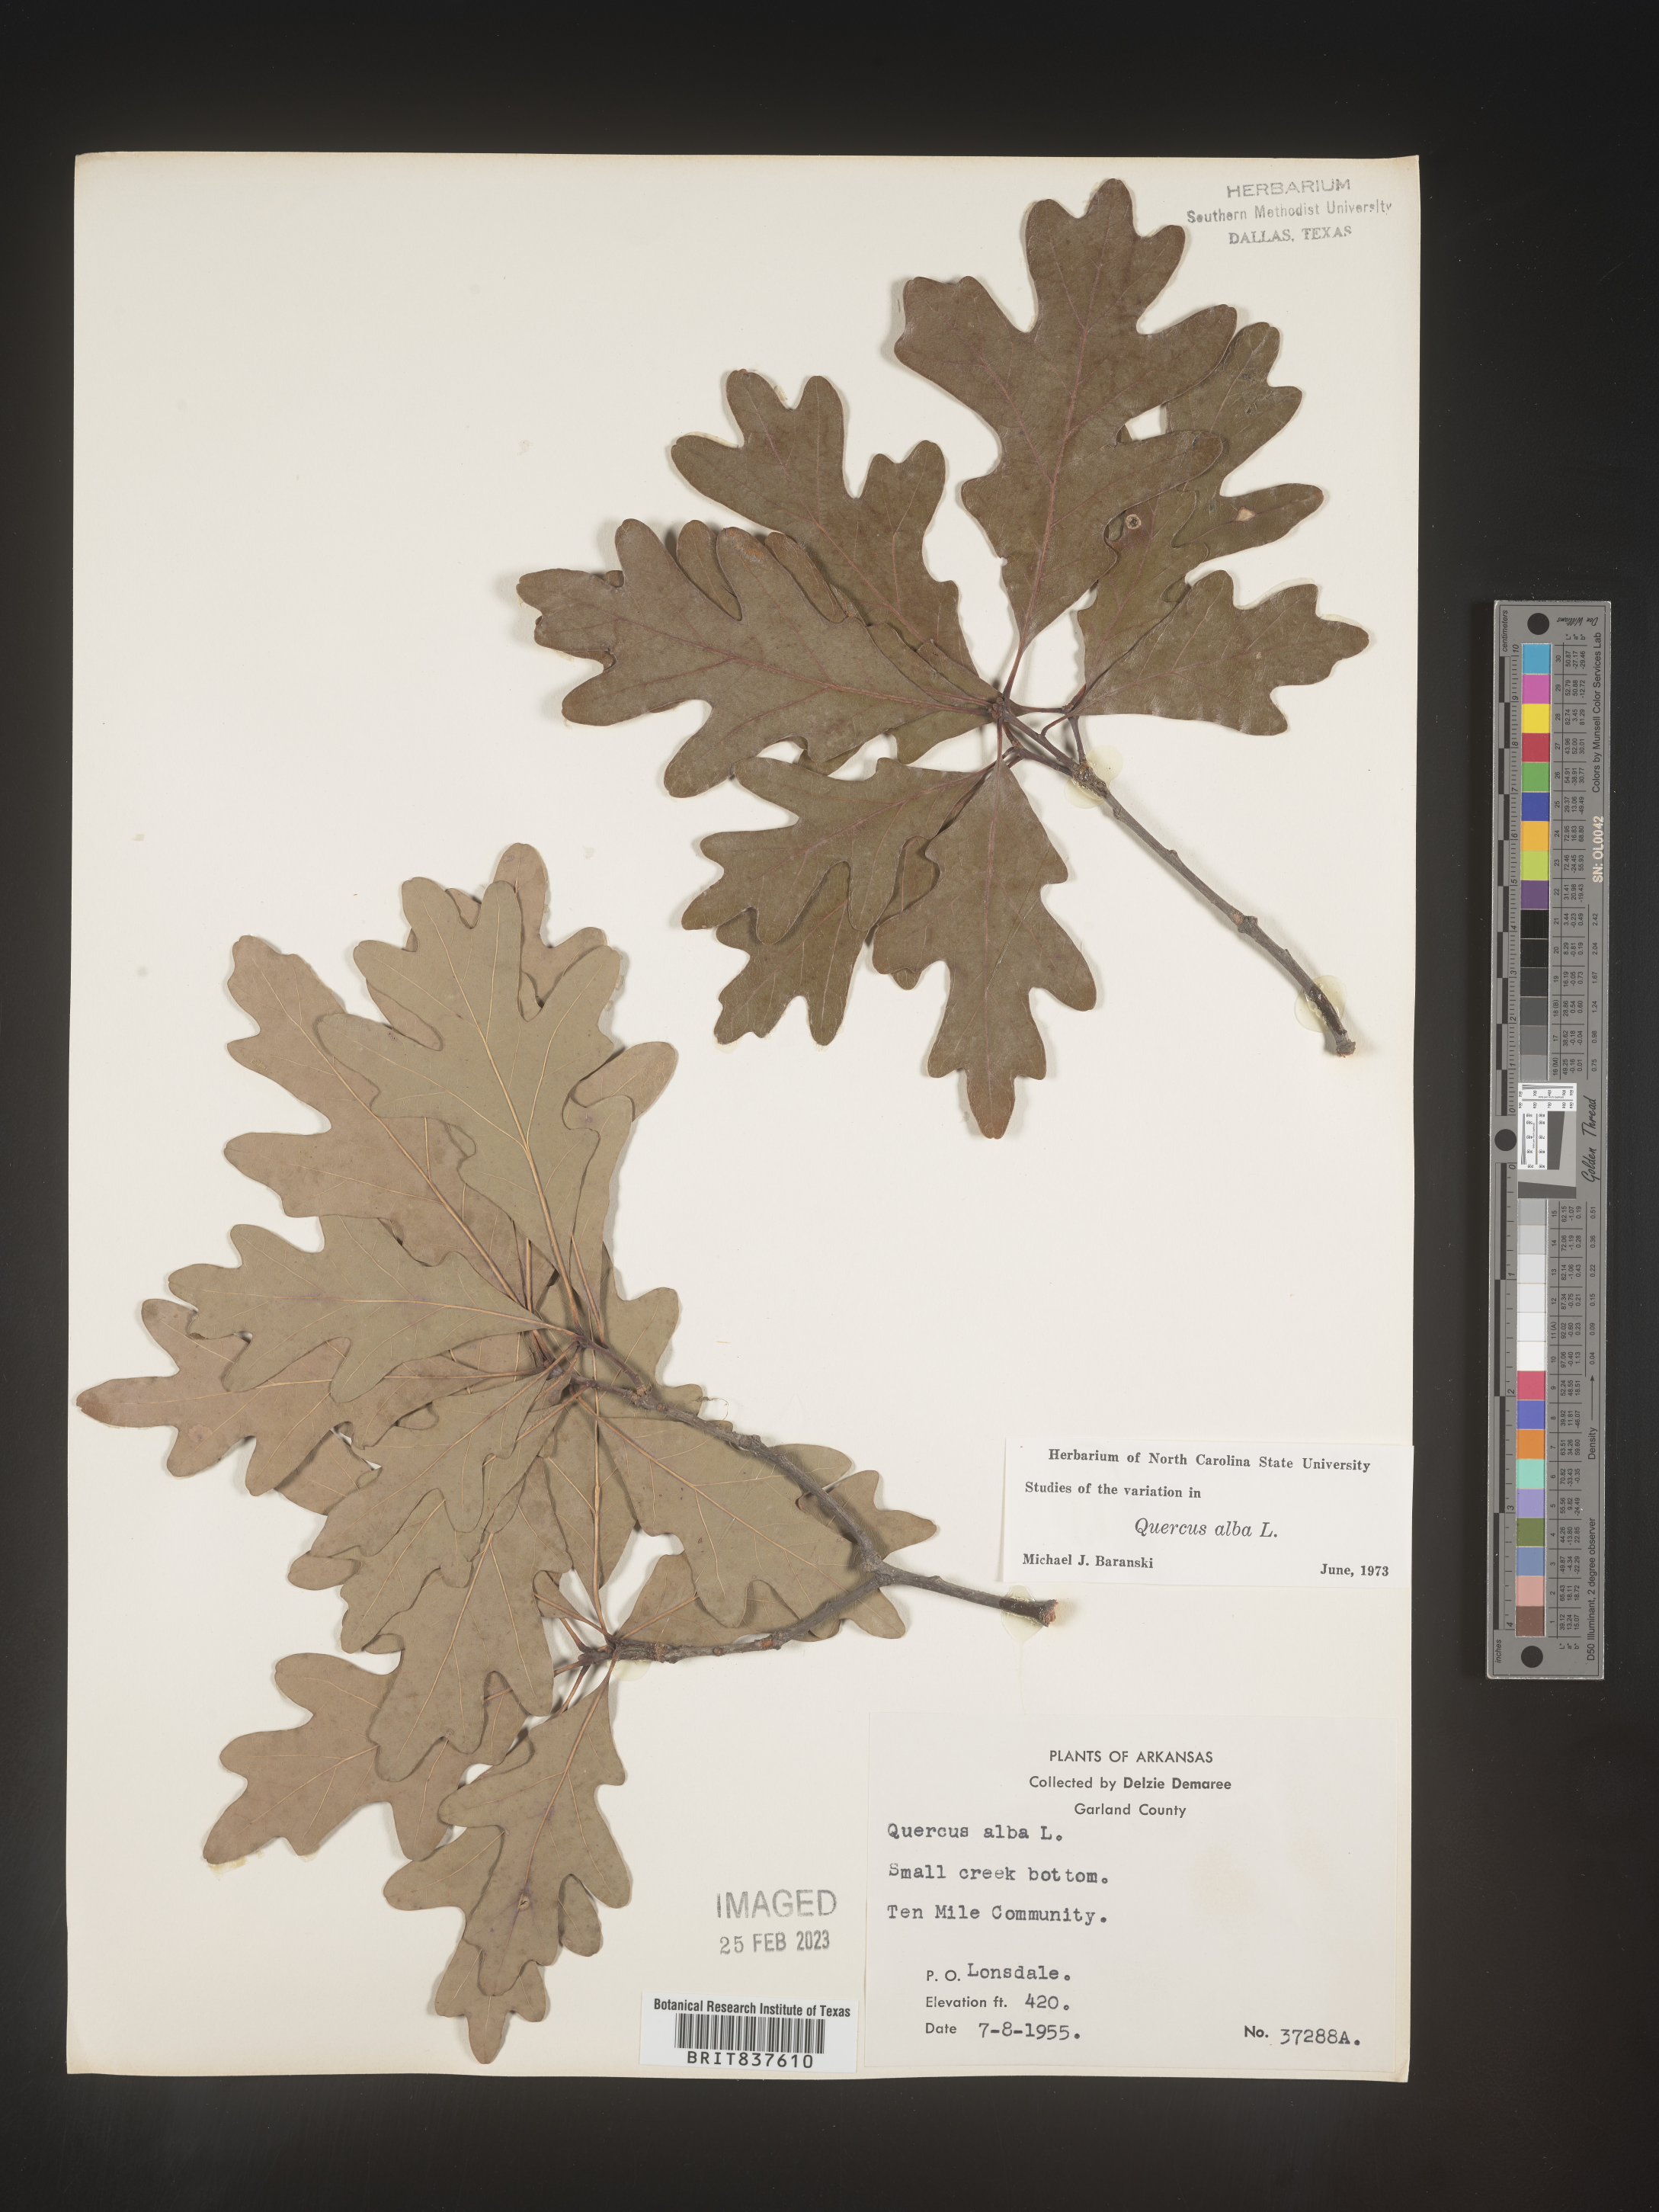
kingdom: Plantae
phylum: Tracheophyta
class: Magnoliopsida
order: Fagales
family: Fagaceae
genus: Quercus
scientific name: Quercus alba
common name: White oak
